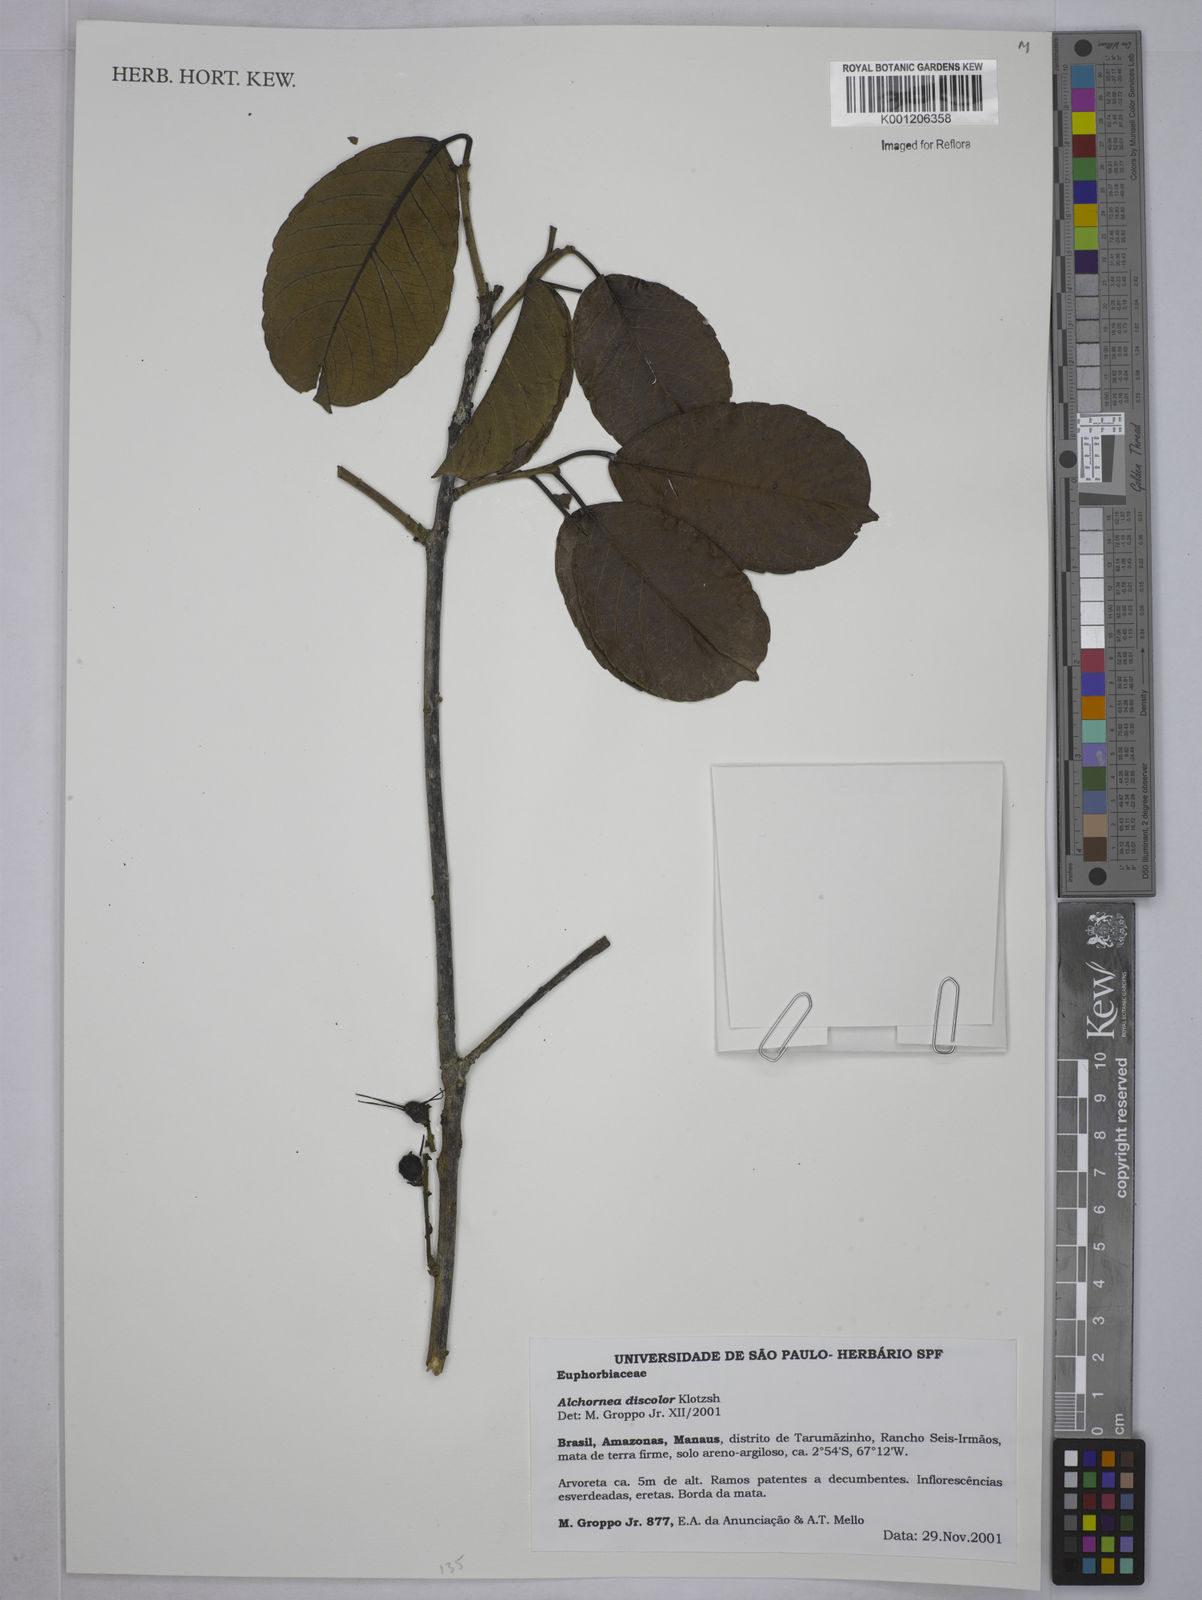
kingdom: Plantae
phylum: Tracheophyta
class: Magnoliopsida
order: Malpighiales
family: Euphorbiaceae
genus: Alchornea
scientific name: Alchornea discolor
